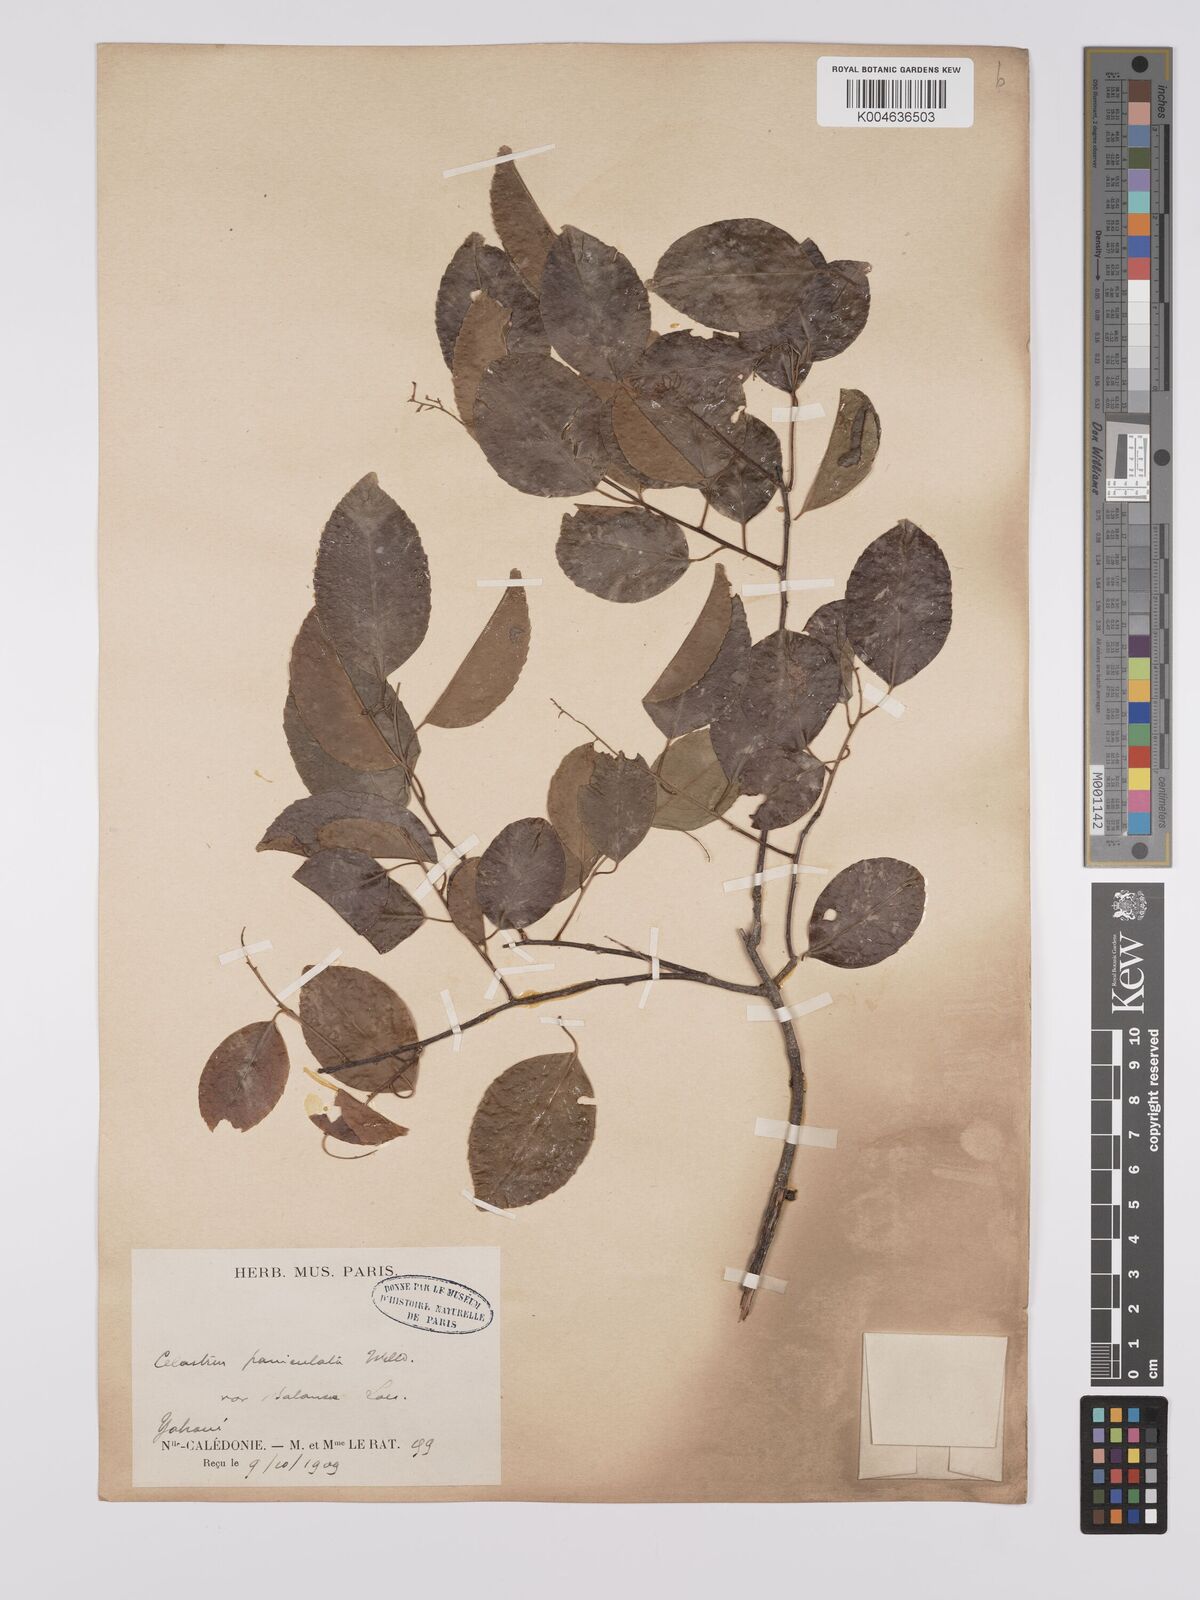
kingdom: Plantae
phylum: Tracheophyta
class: Magnoliopsida
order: Celastrales
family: Celastraceae
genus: Celastrus
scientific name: Celastrus paniculatus
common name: Oriental bittersweet; staff vine
